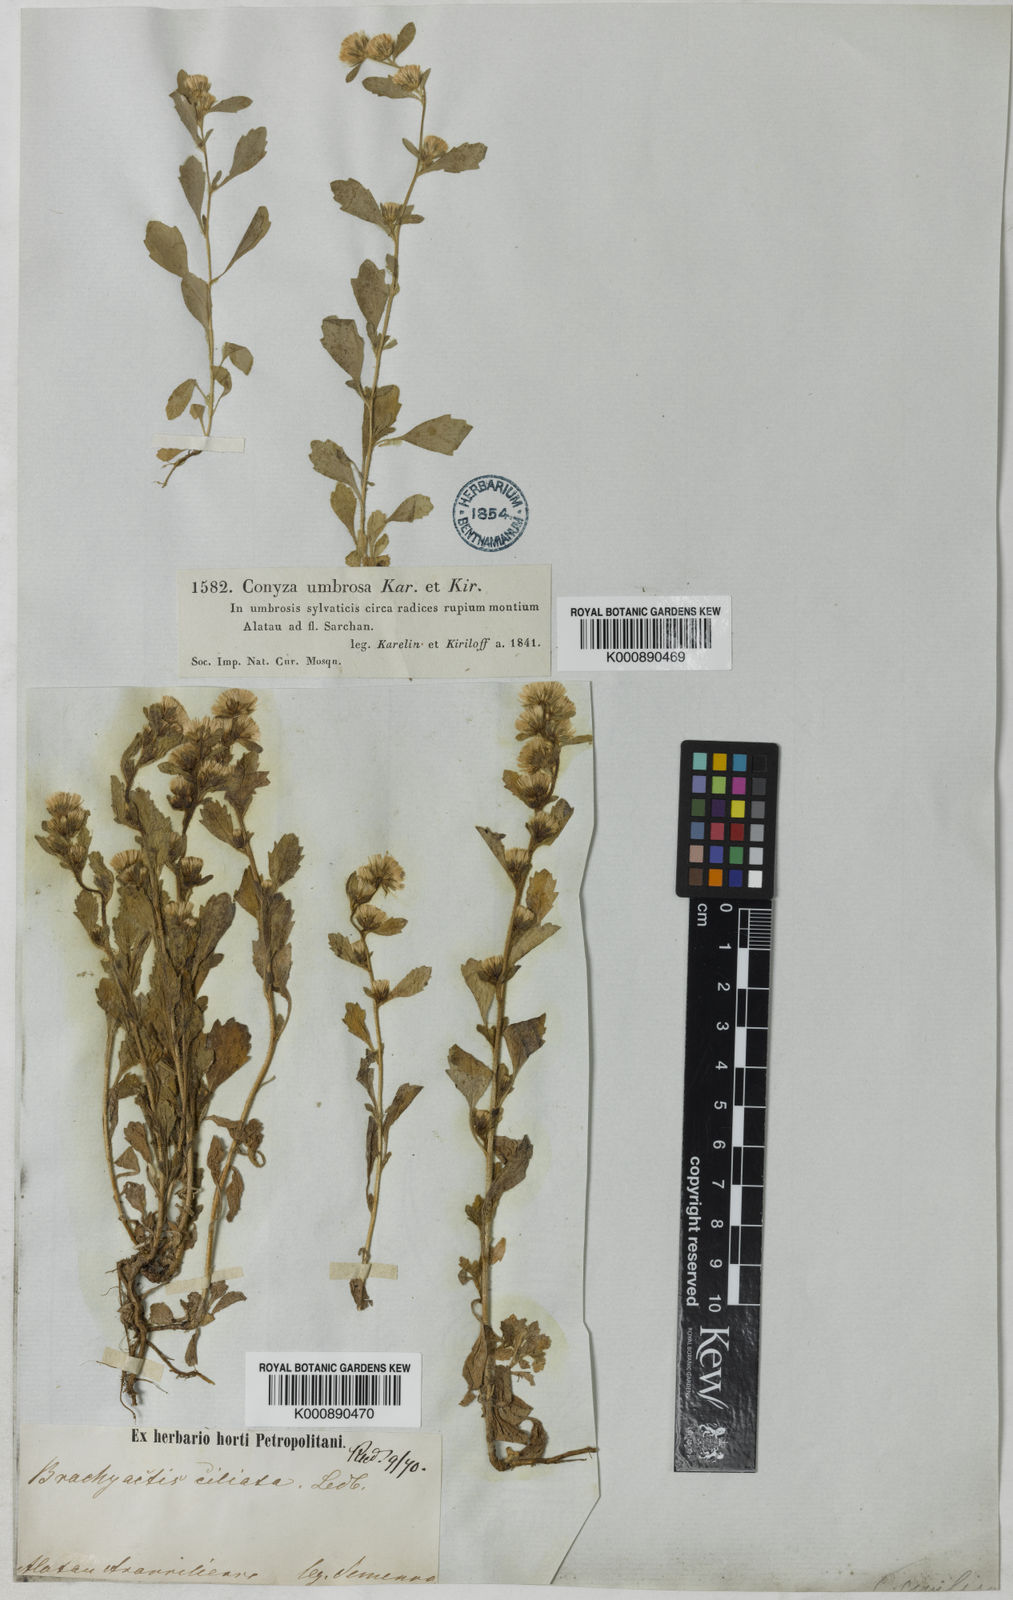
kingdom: Plantae
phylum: Tracheophyta
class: Magnoliopsida
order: Asterales
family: Asteraceae
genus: Neobrachyactis
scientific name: Neobrachyactis roylei
